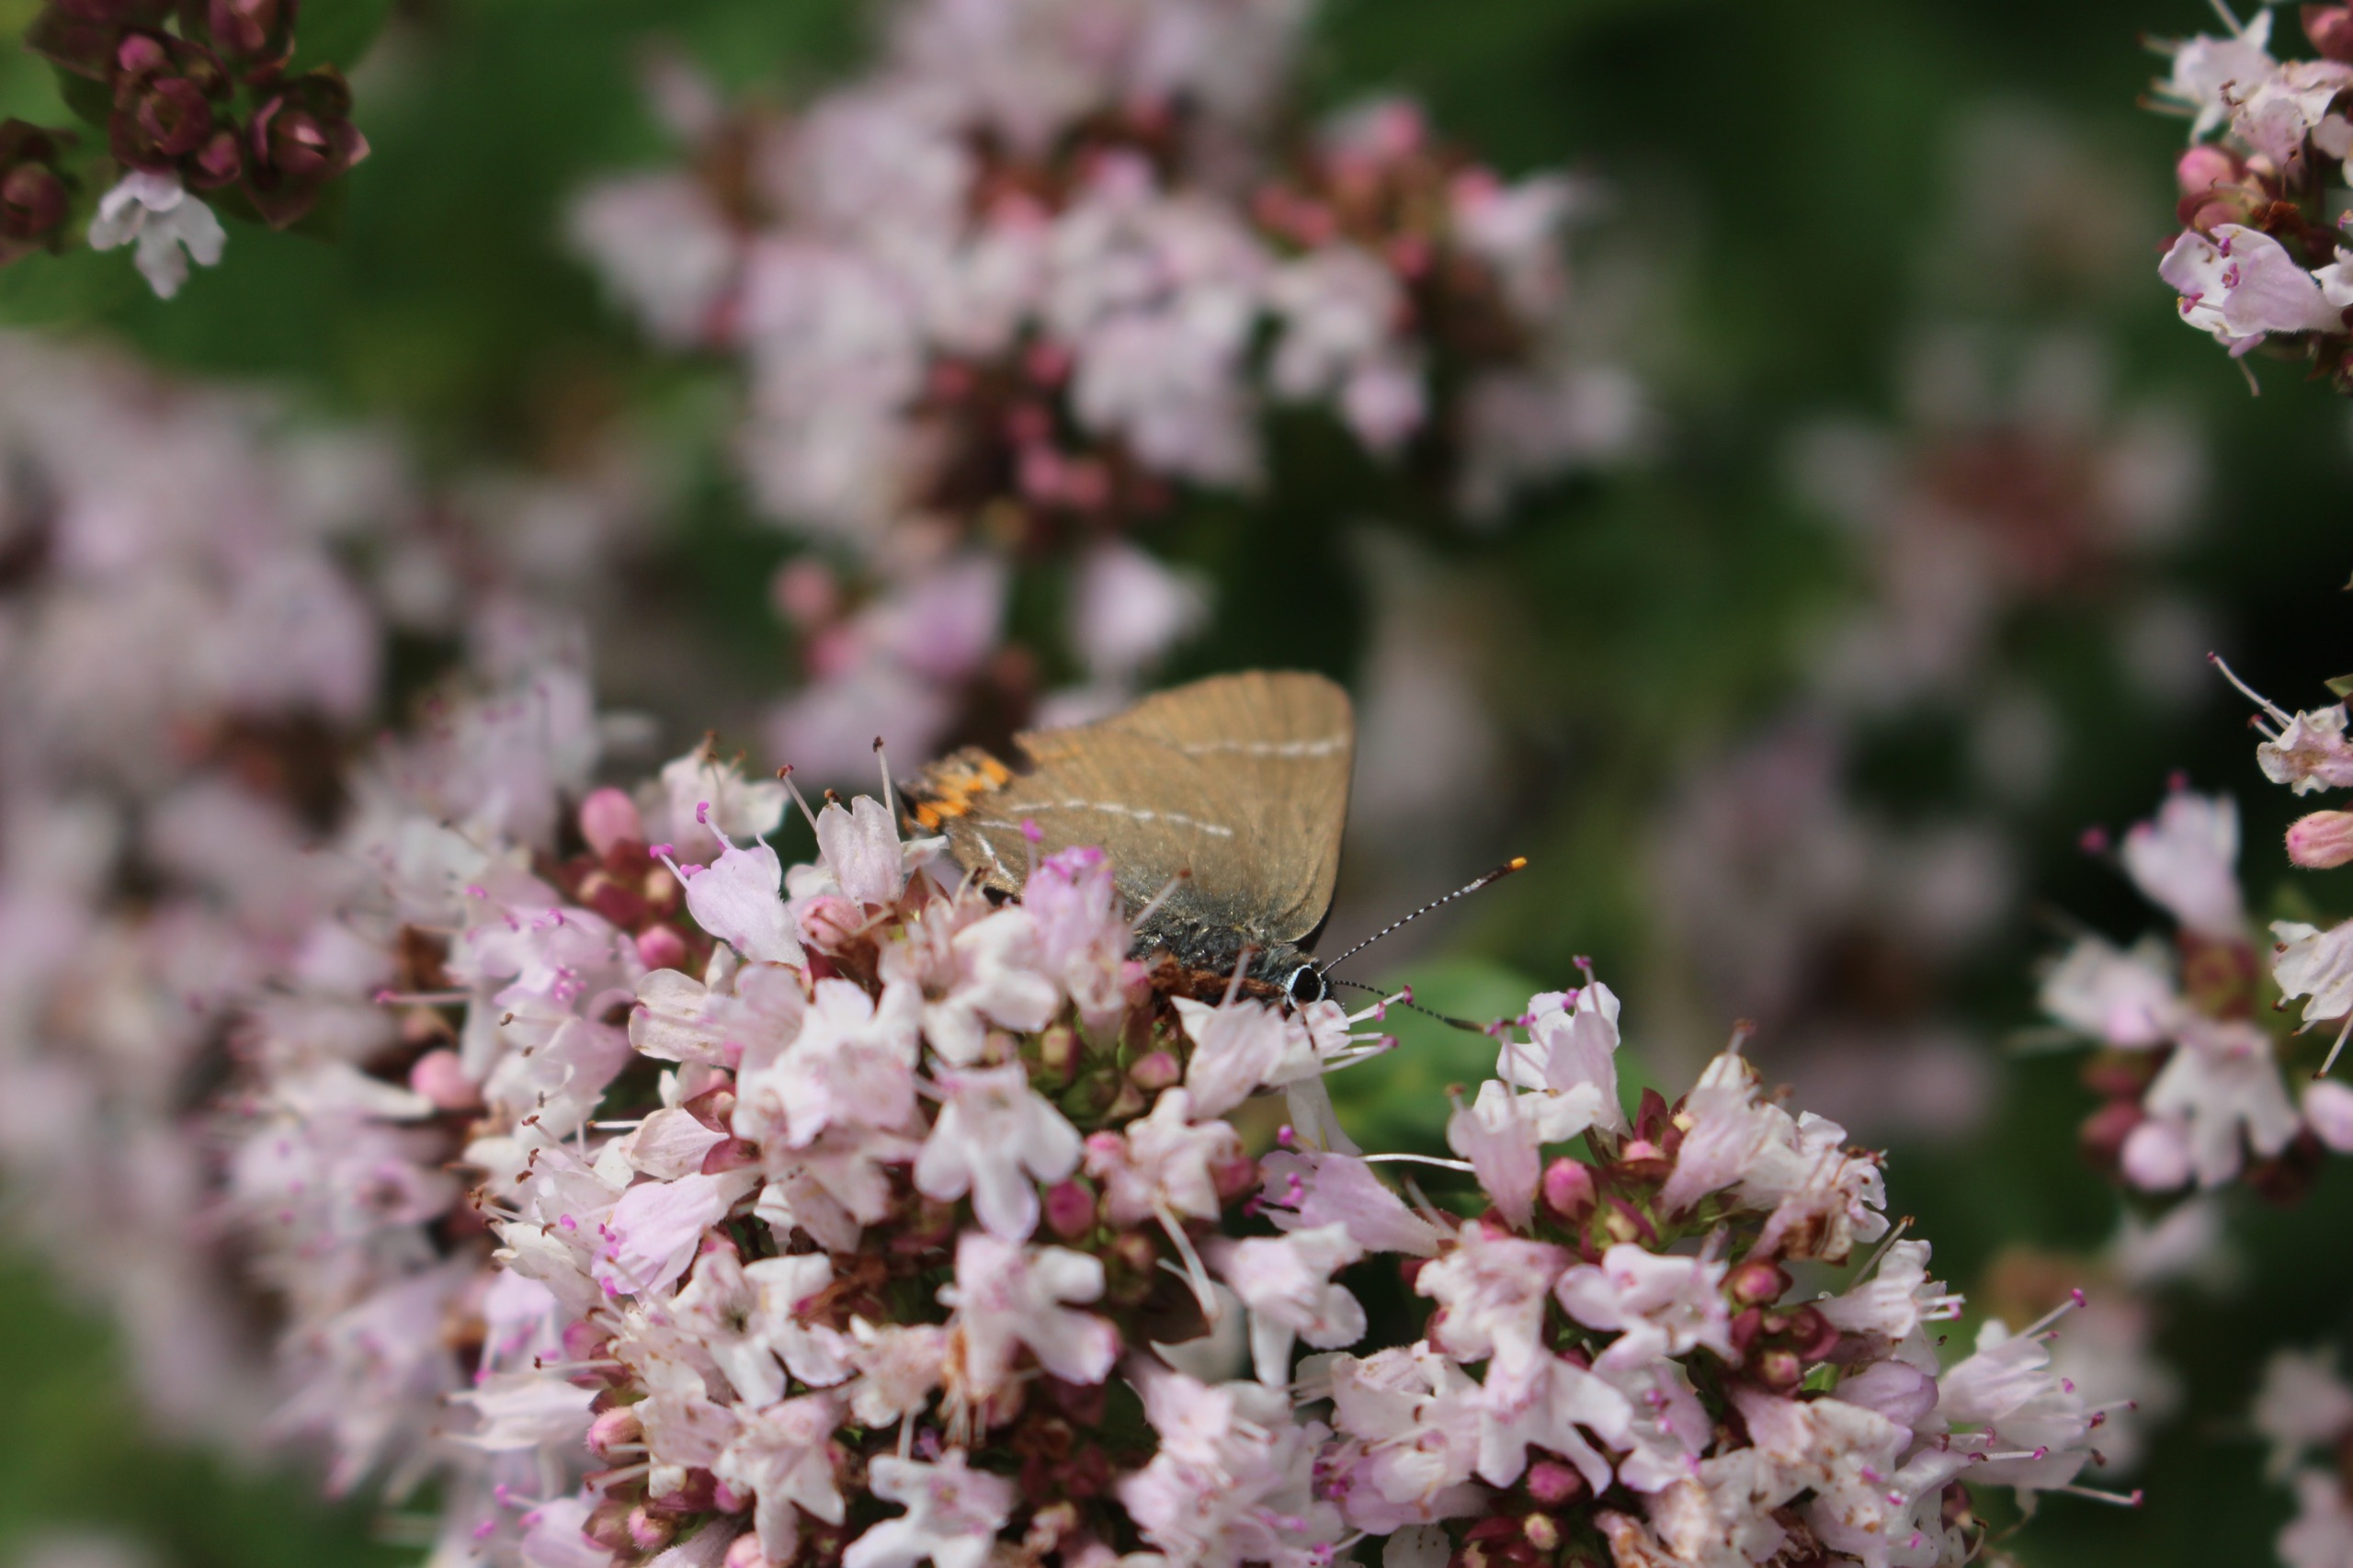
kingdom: Animalia
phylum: Arthropoda
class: Insecta
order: Lepidoptera
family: Lycaenidae
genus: Satyrium
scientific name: Satyrium w-album
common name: Det hvide W
